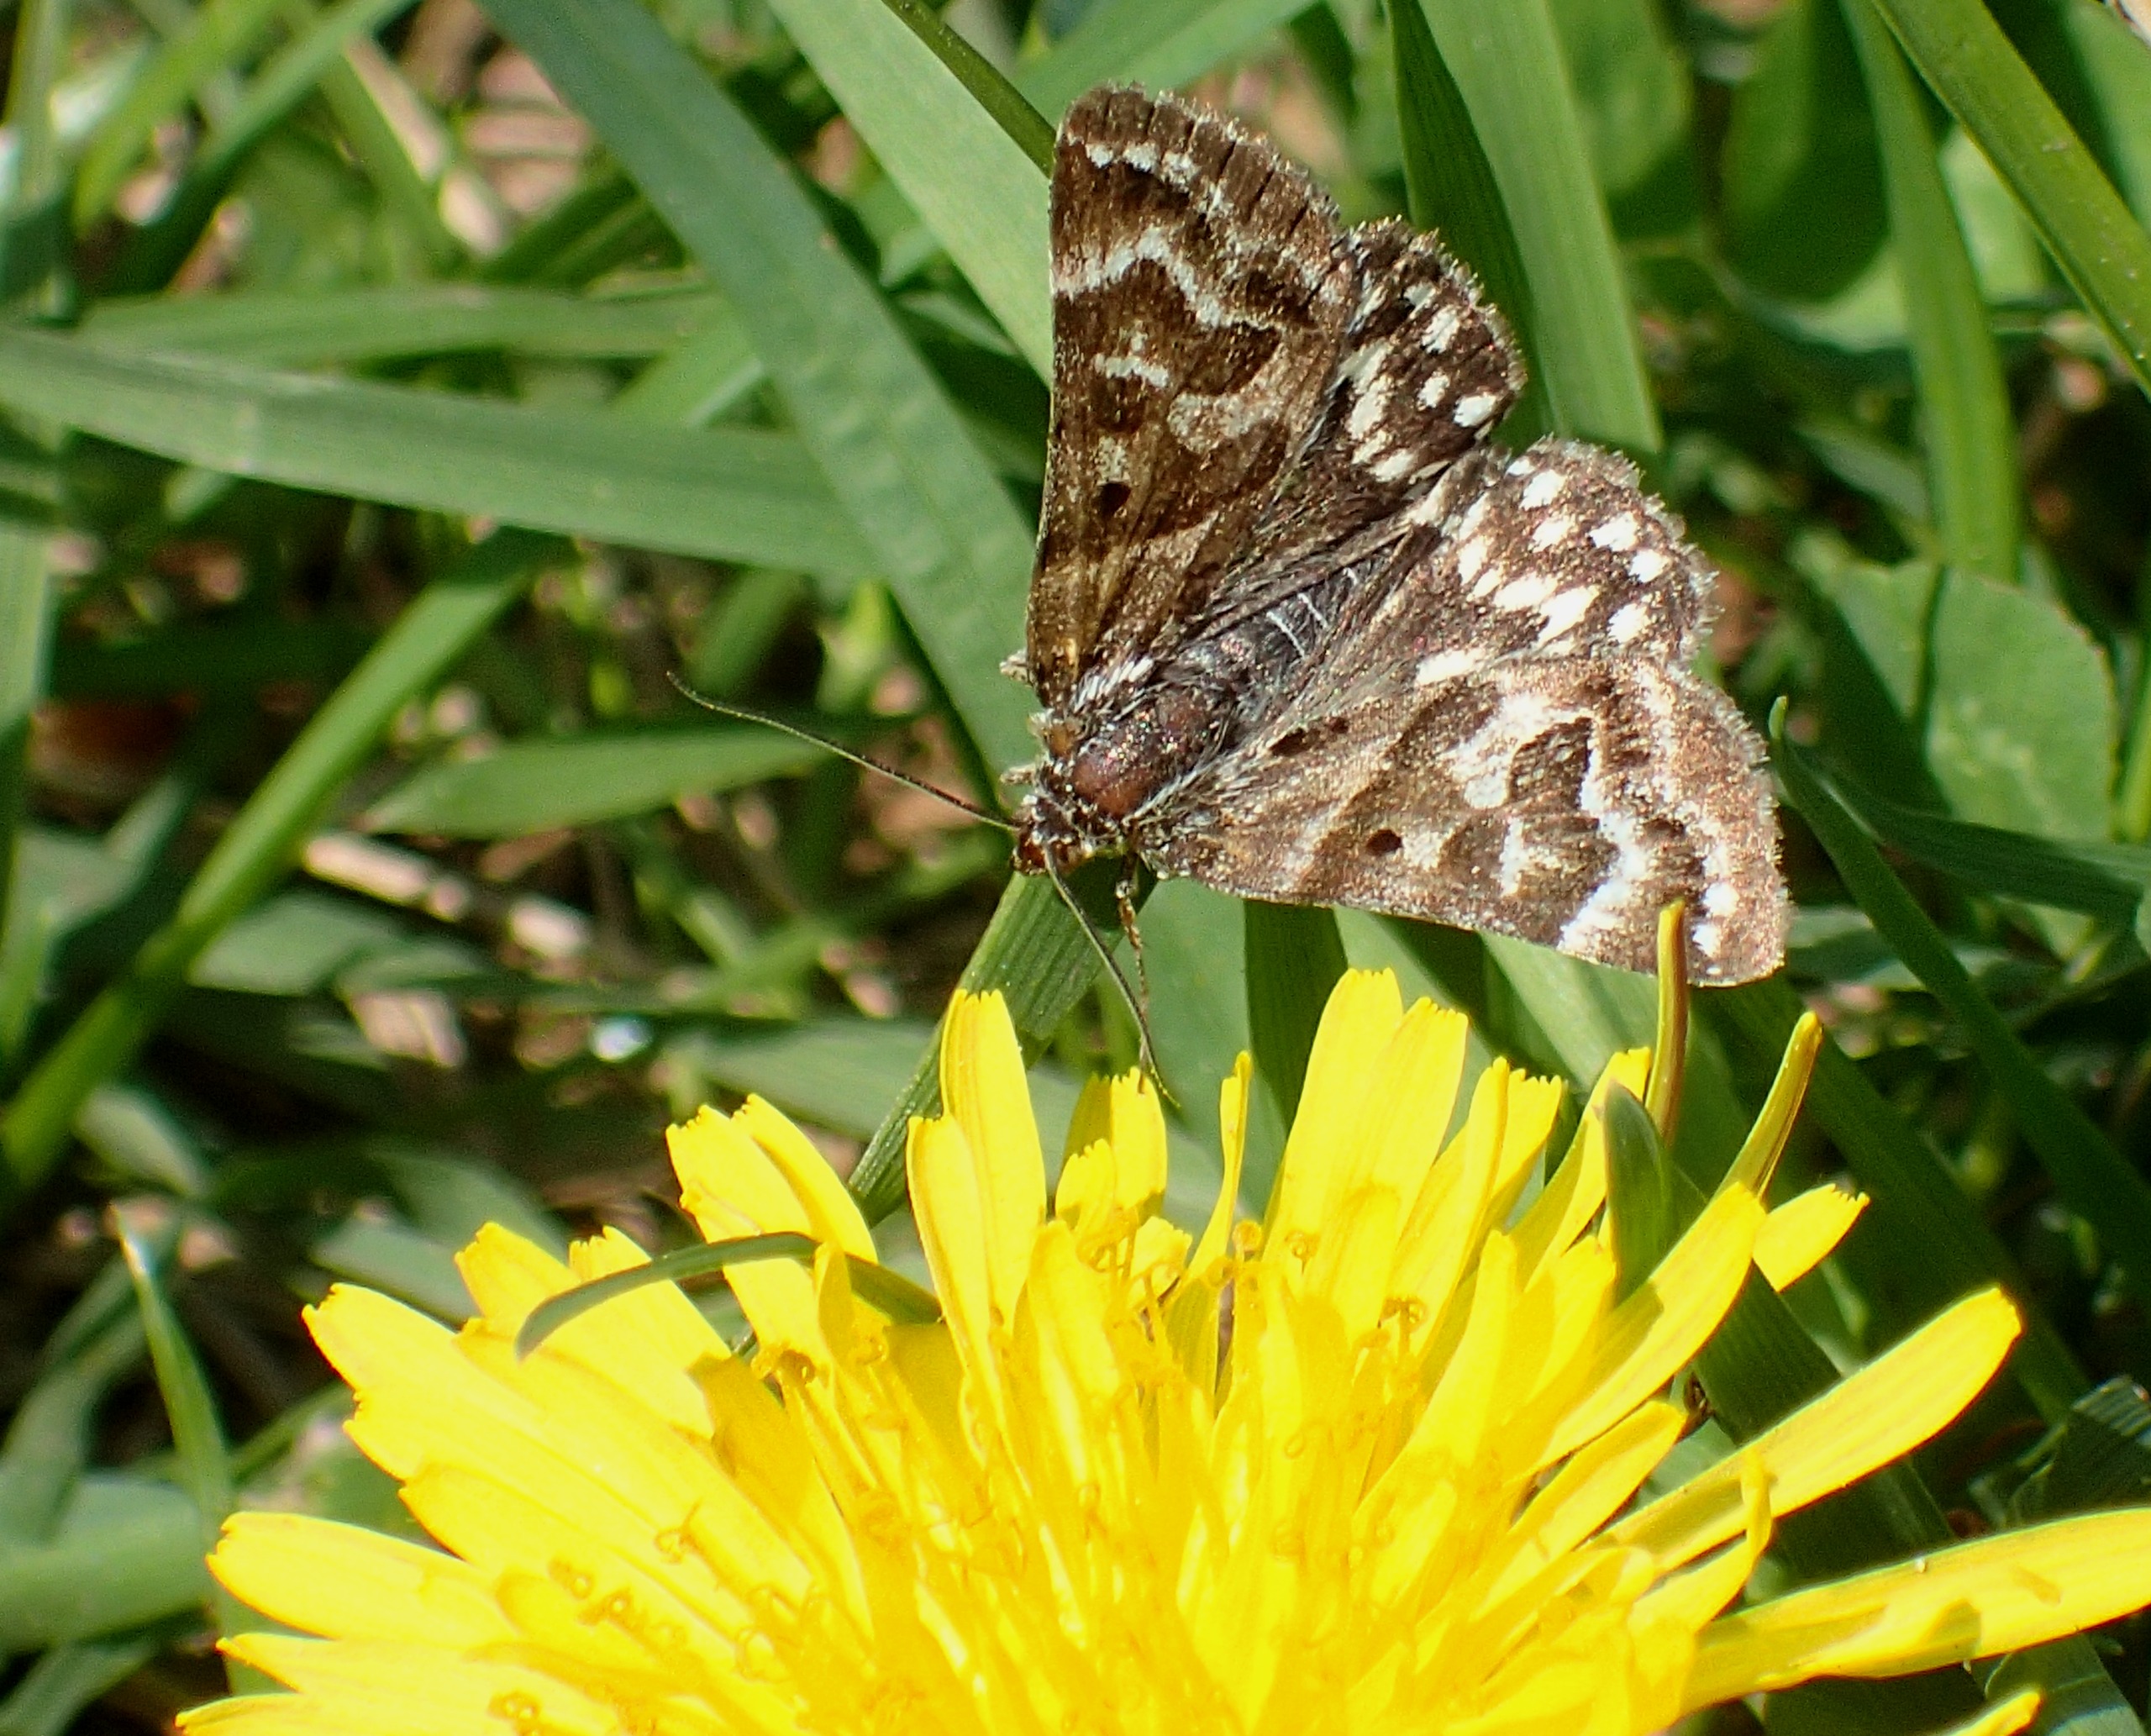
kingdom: Animalia
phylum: Arthropoda
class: Insecta
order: Lepidoptera
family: Erebidae
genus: Callistege
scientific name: Callistege mi
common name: Marmoreret kløverugle
